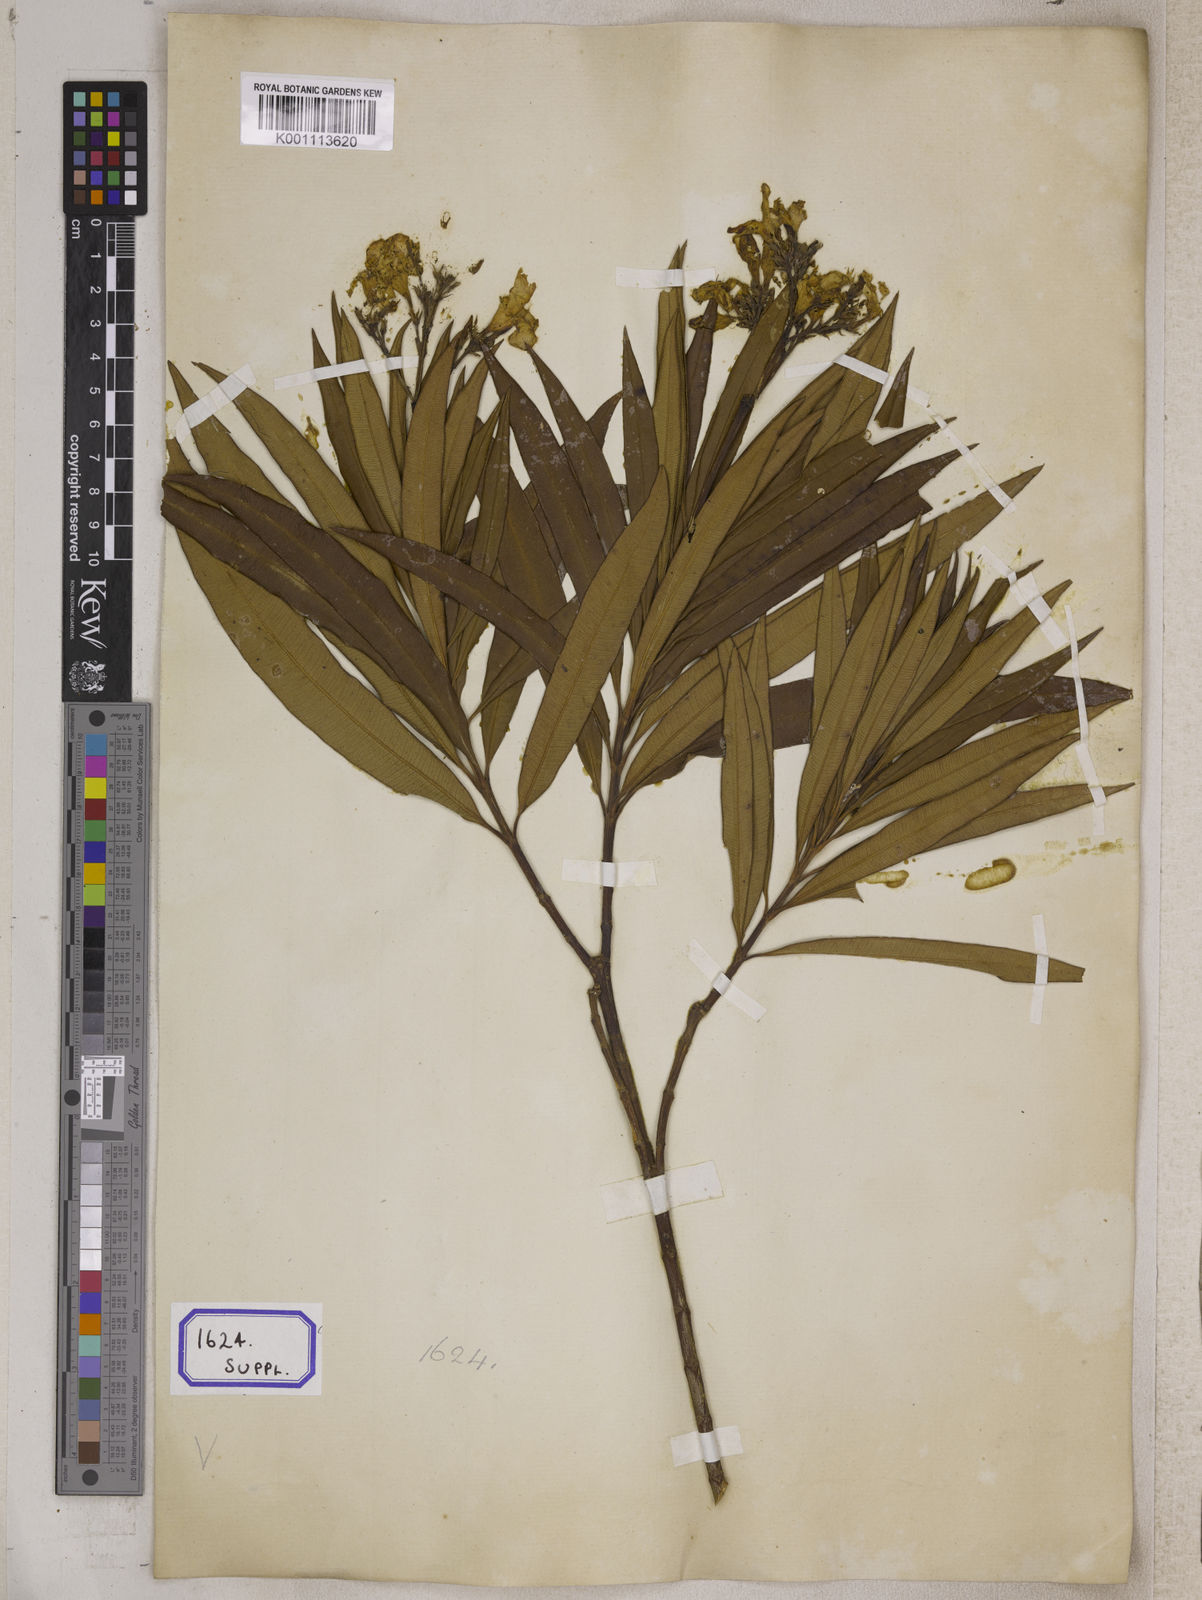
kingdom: Plantae
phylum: Tracheophyta
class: Magnoliopsida
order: Gentianales
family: Apocynaceae
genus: Nerium
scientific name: Nerium indicum
